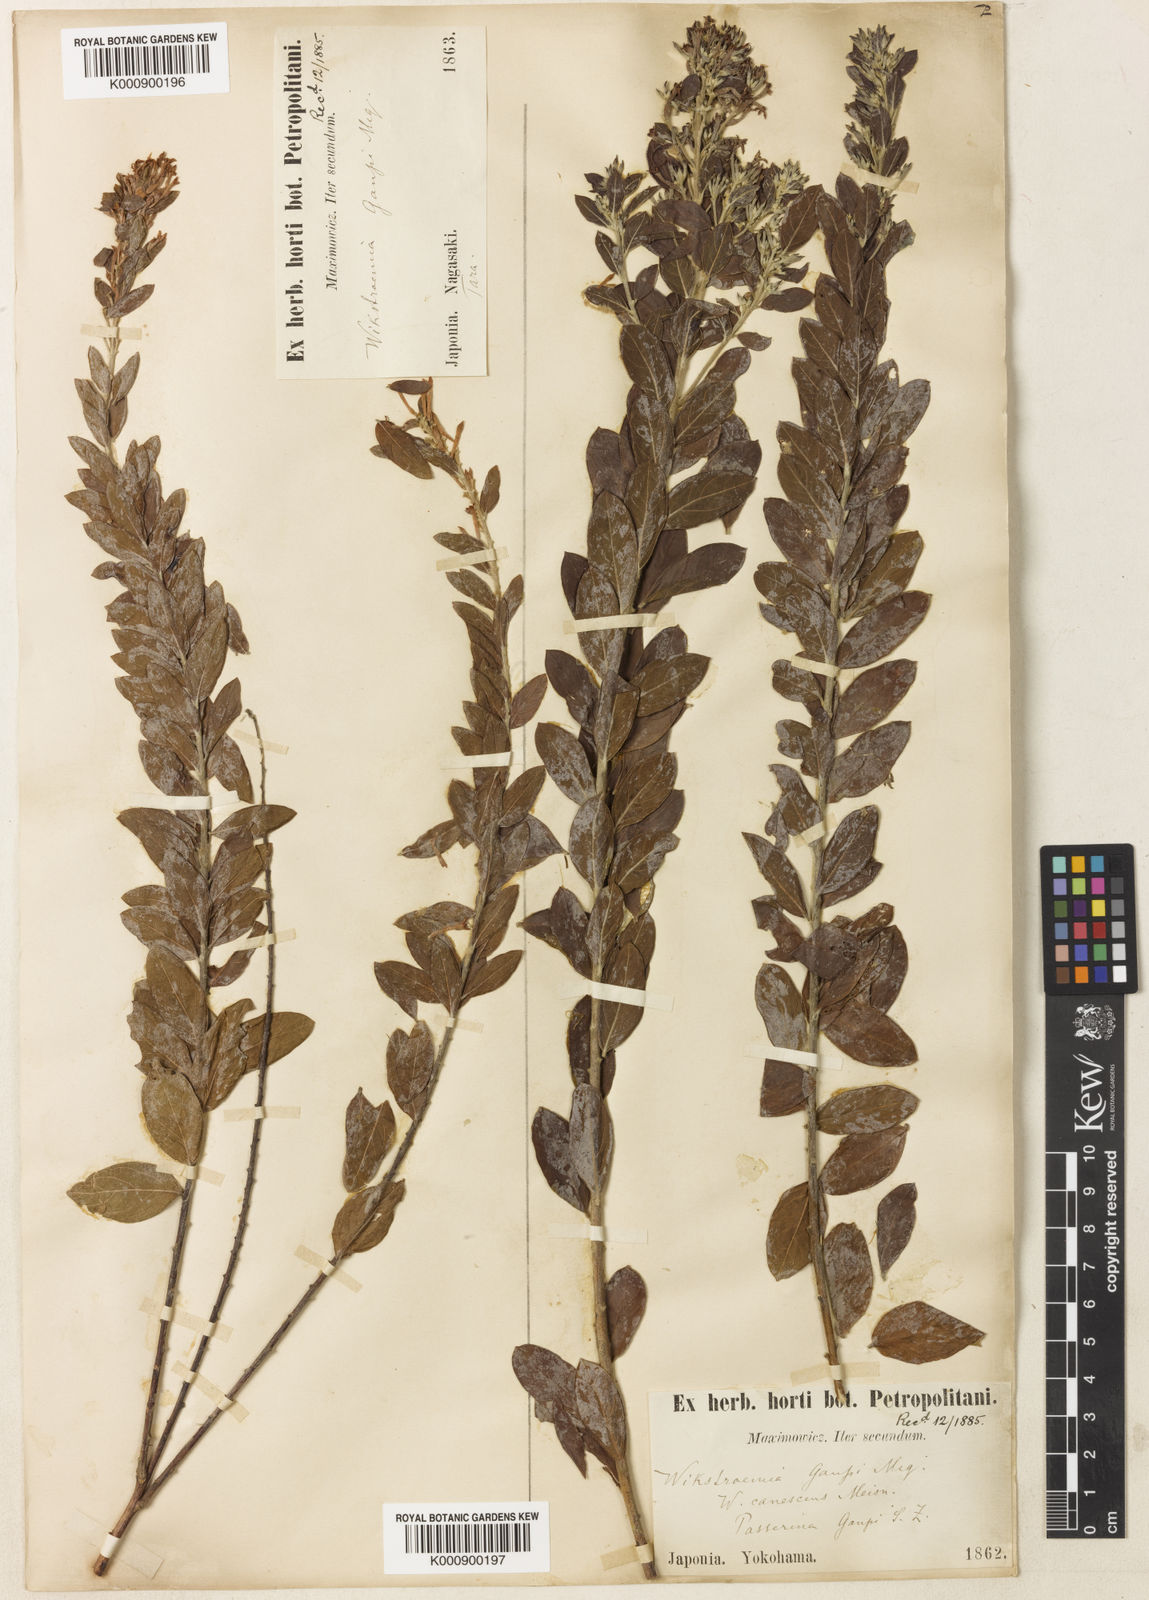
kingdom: Plantae
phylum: Tracheophyta
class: Magnoliopsida
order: Malvales
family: Thymelaeaceae
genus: Wikstroemia
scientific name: Wikstroemia canescens
